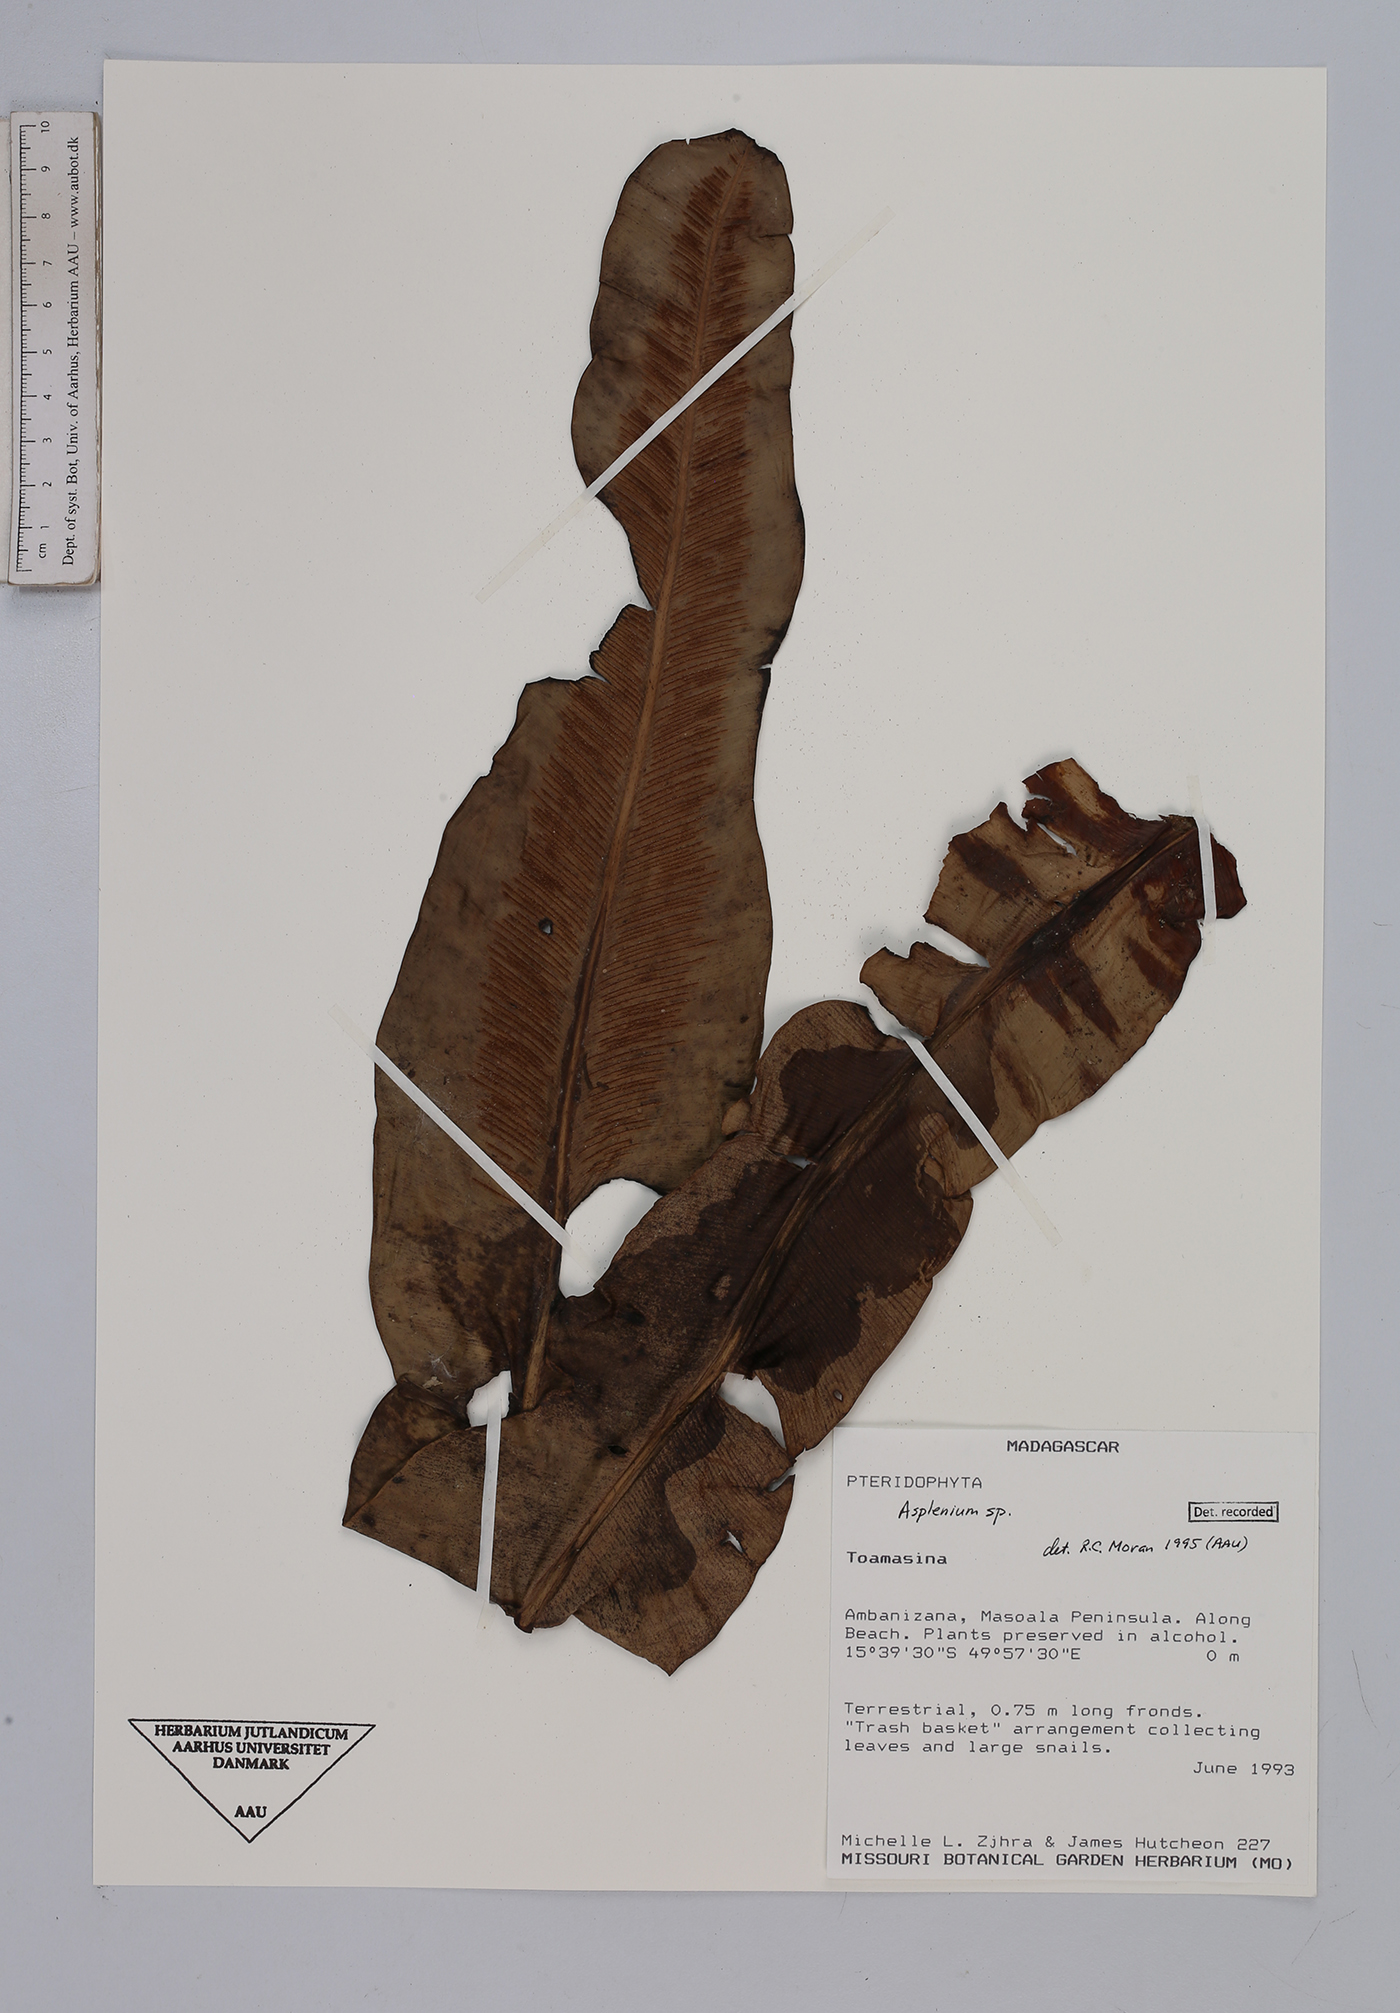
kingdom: Plantae
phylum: Tracheophyta
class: Polypodiopsida
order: Polypodiales
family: Aspleniaceae
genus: Asplenium
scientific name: Asplenium
